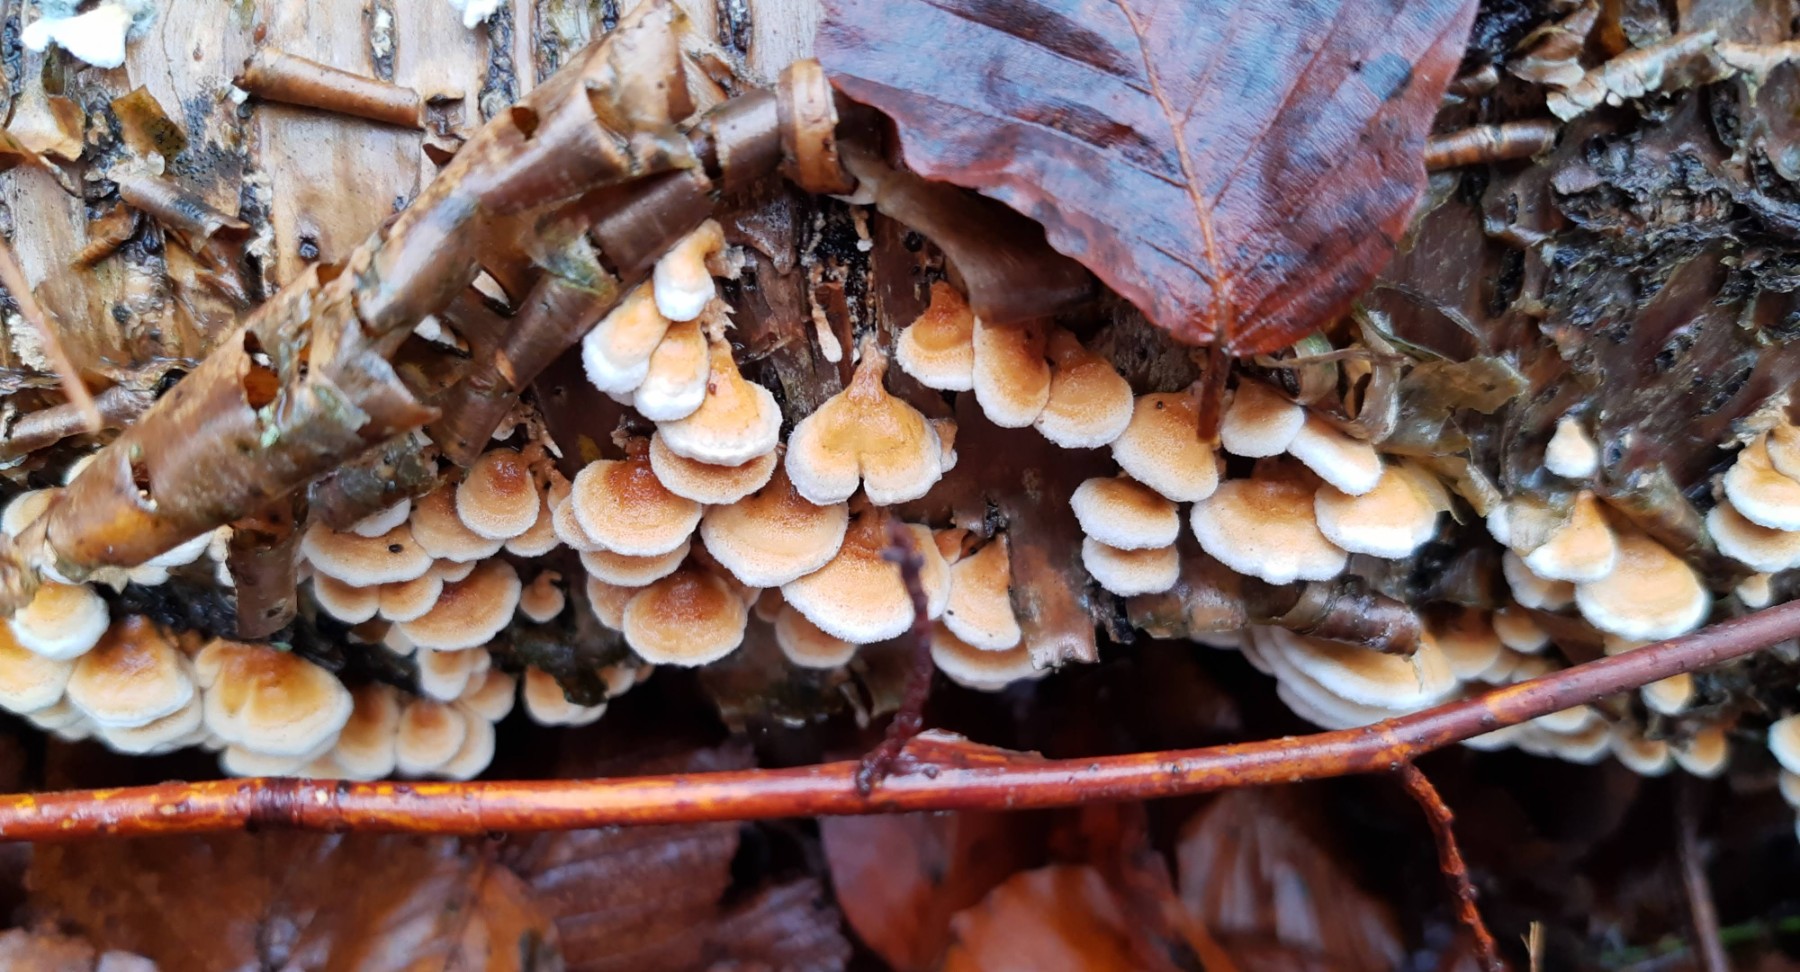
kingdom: Fungi
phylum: Basidiomycota
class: Agaricomycetes
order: Amylocorticiales
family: Amylocorticiaceae
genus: Plicaturopsis
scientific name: Plicaturopsis crispa
